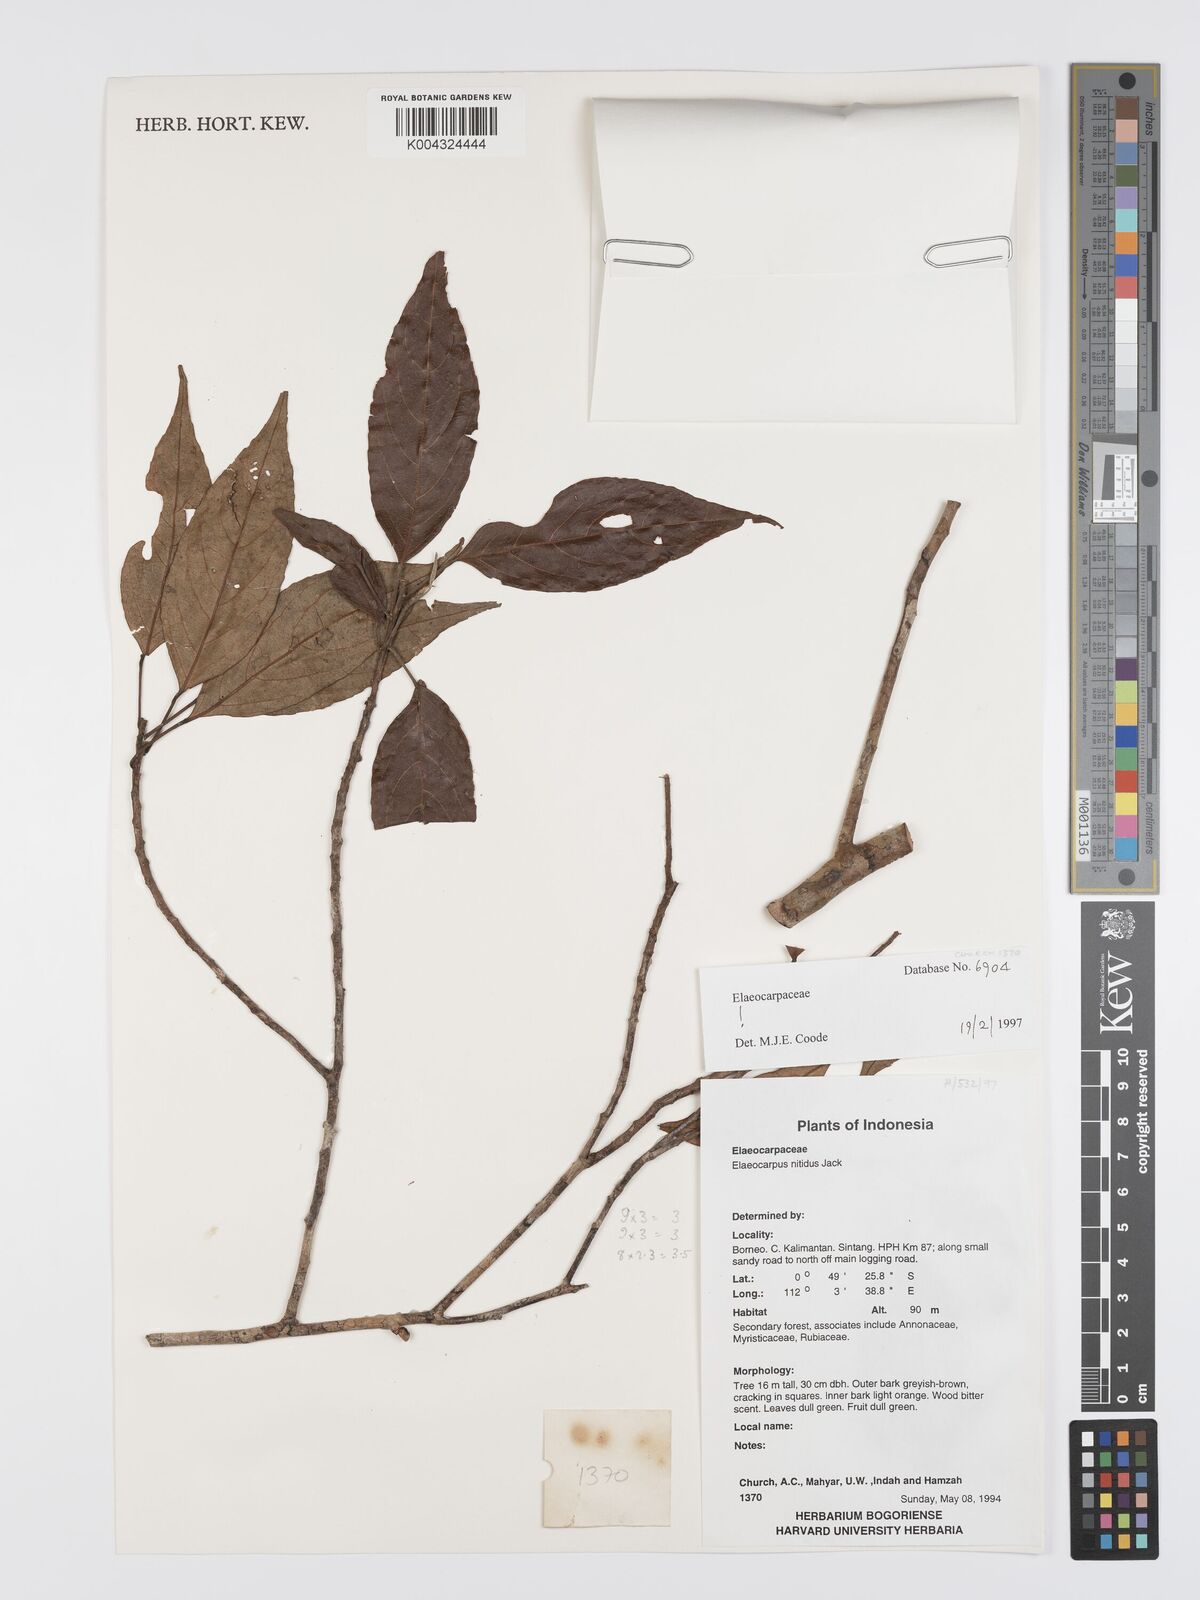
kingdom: Plantae
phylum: Tracheophyta
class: Magnoliopsida
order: Oxalidales
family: Elaeocarpaceae
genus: Elaeocarpus
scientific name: Elaeocarpus nitidus
